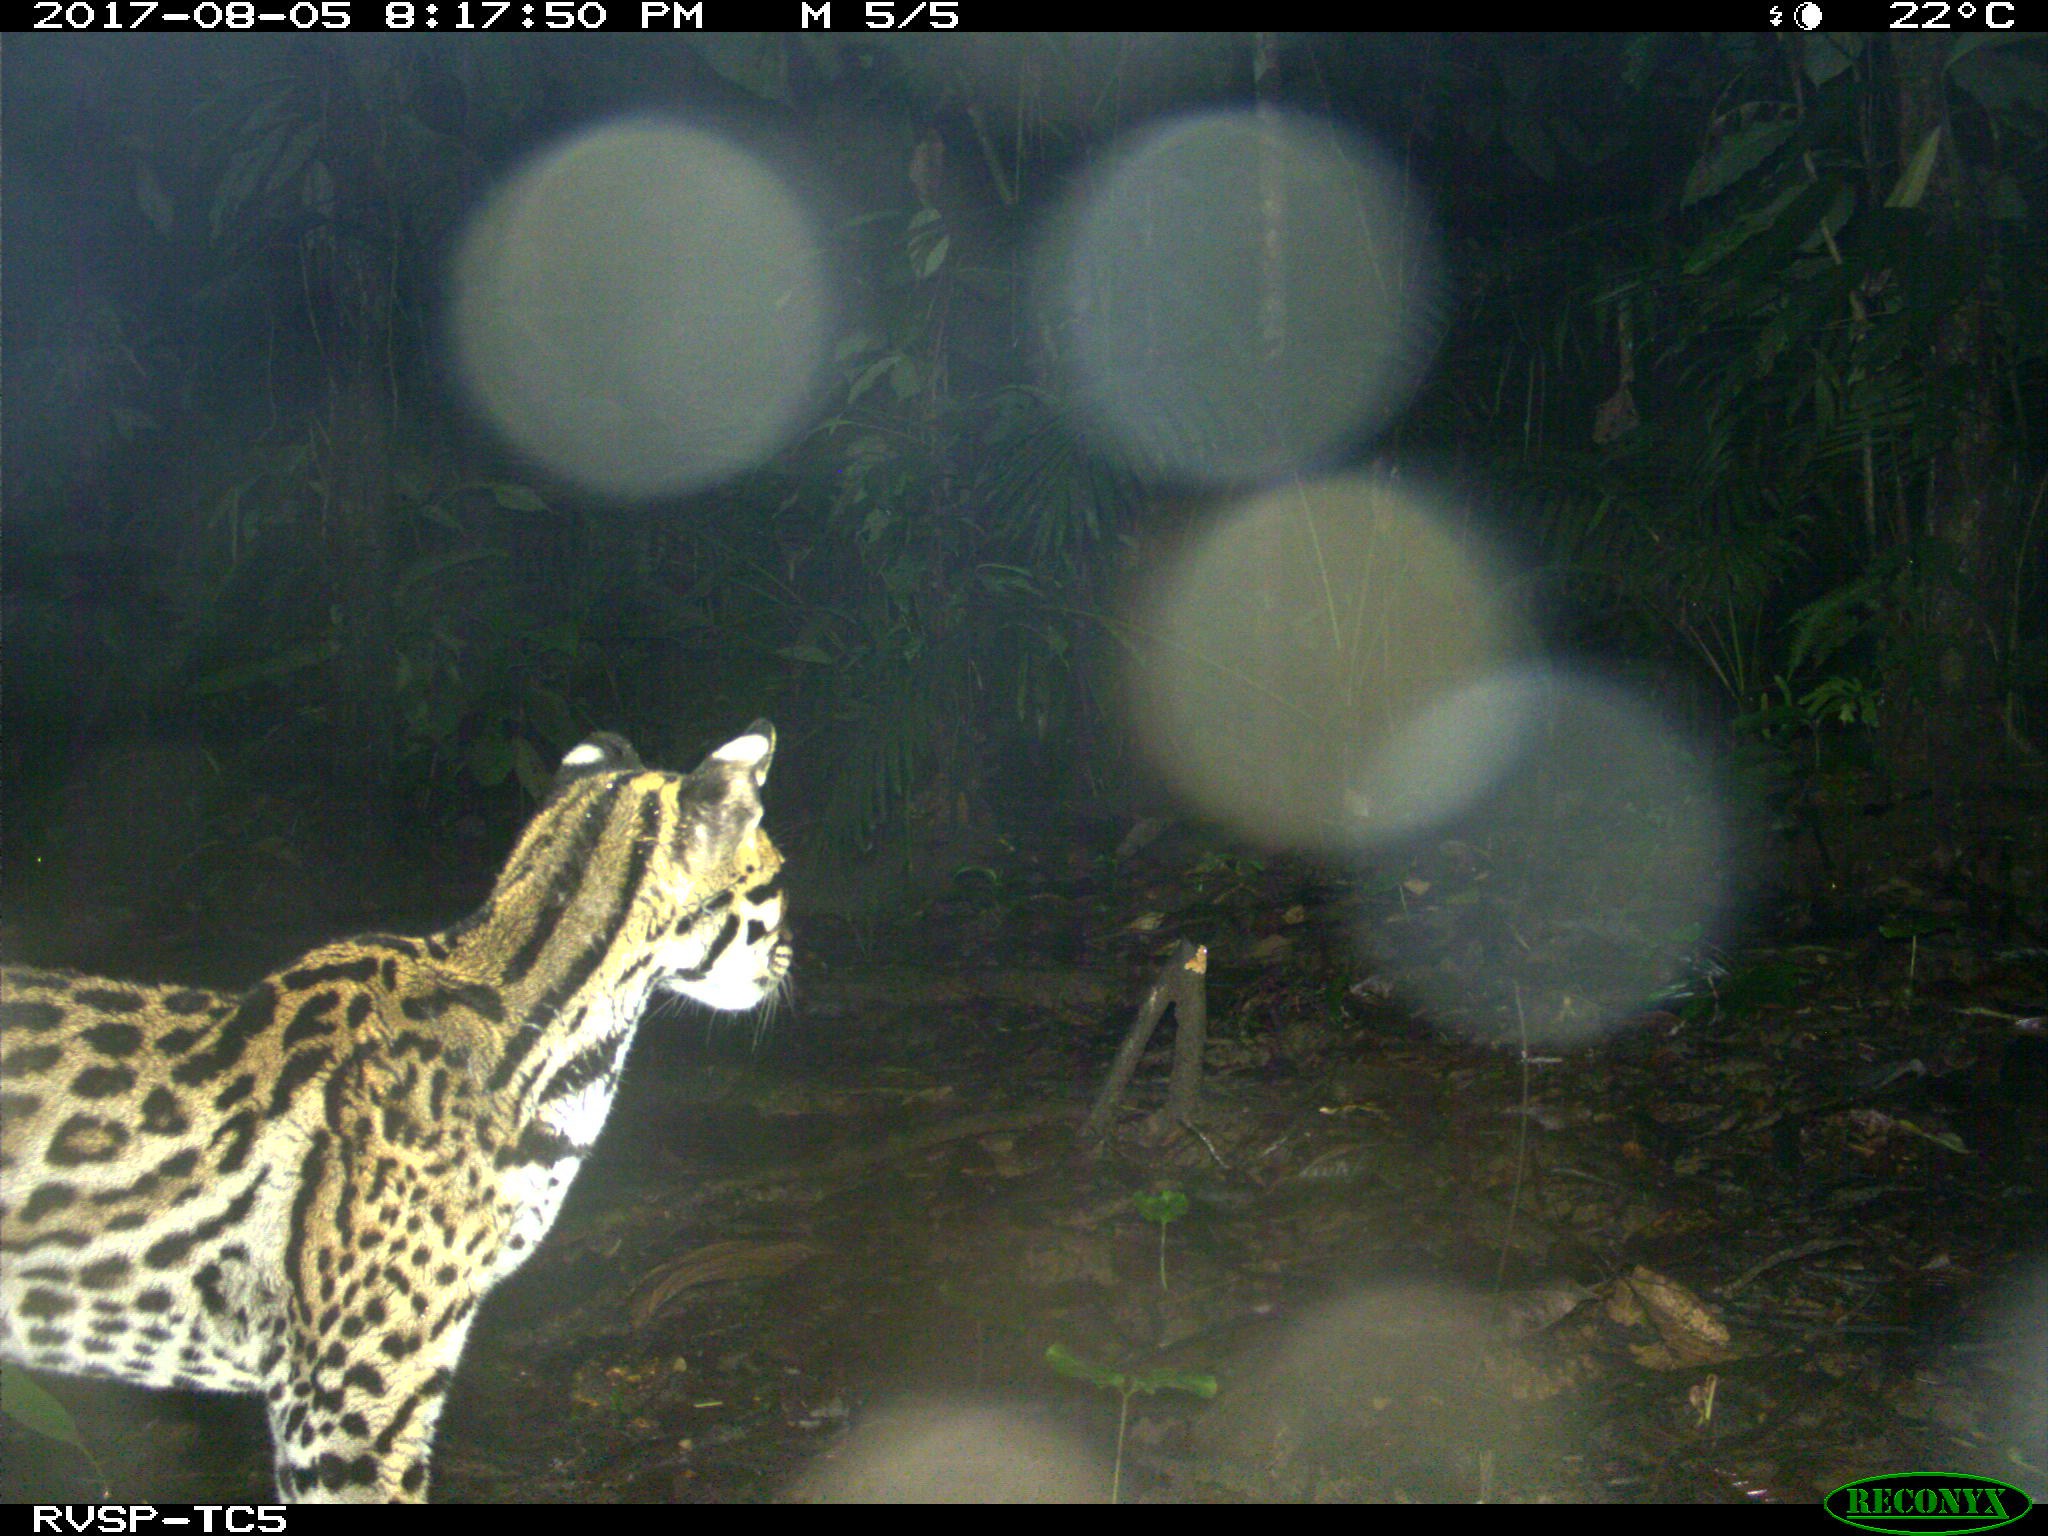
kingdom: Animalia
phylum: Chordata
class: Mammalia
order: Carnivora
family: Felidae
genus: Leopardus
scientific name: Leopardus pardalis
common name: Ocelot
